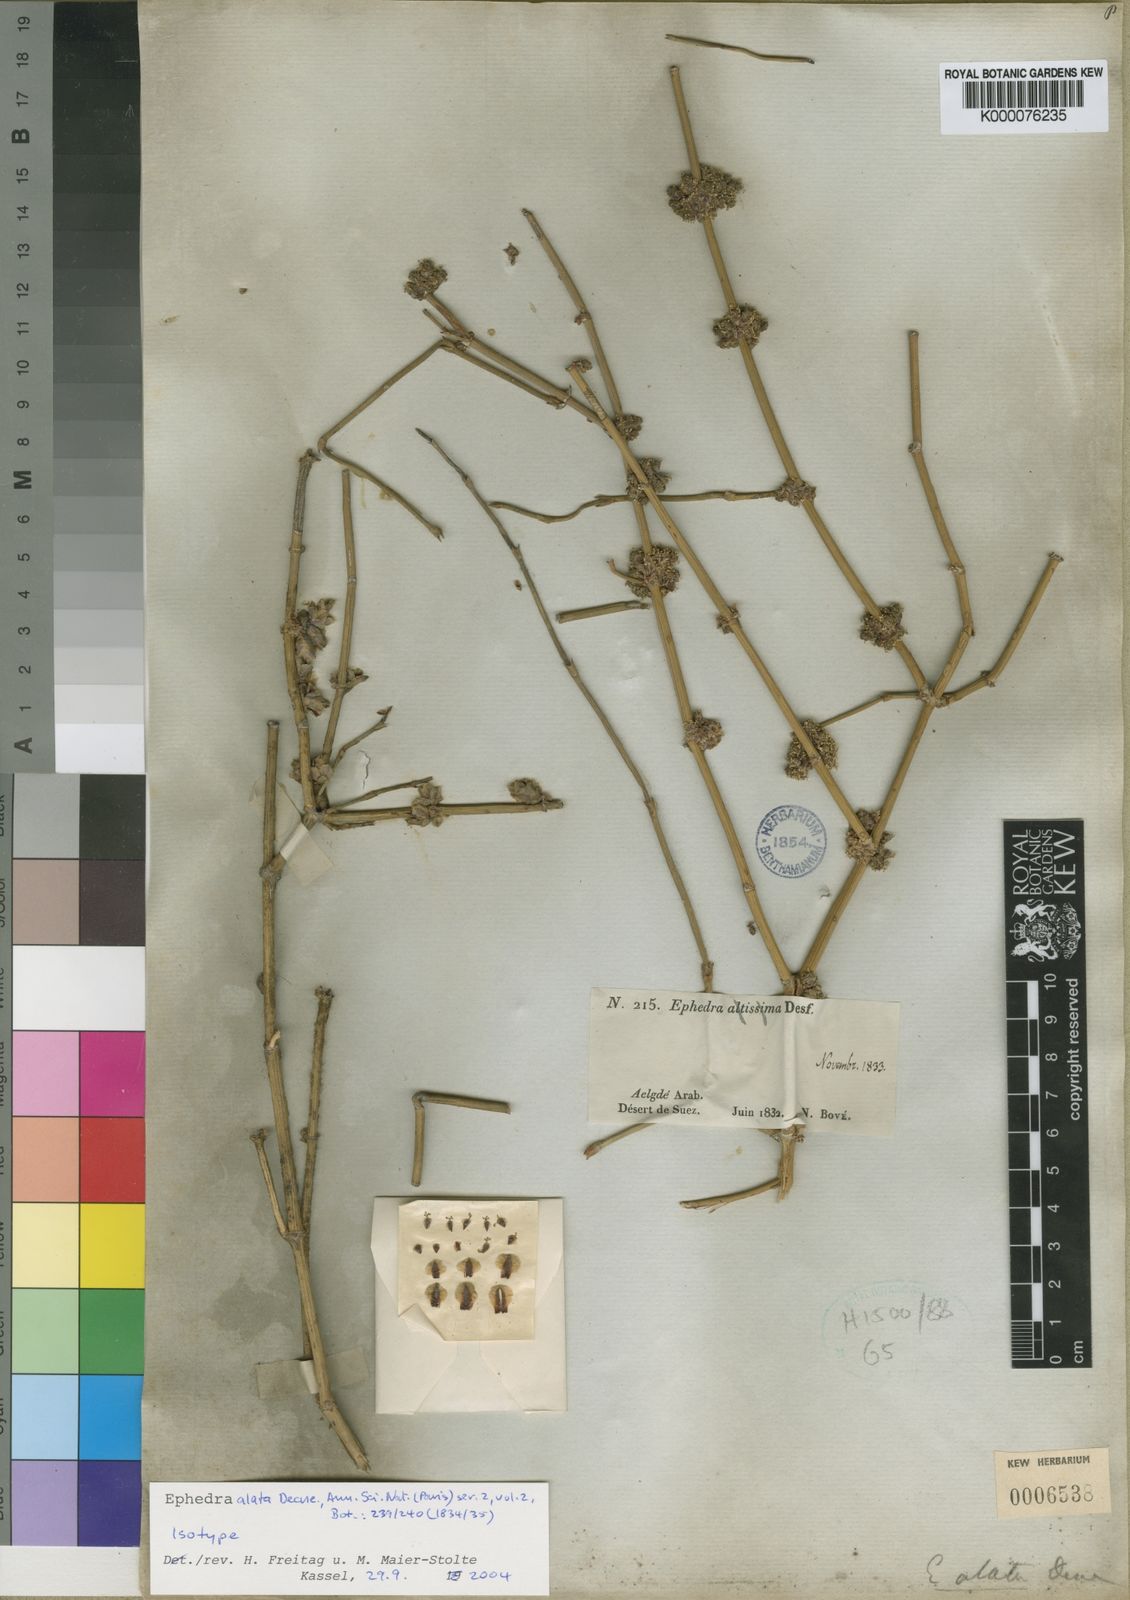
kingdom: Plantae
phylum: Tracheophyta
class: Gnetopsida
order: Ephedrales
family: Ephedraceae
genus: Ephedra
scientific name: Ephedra alata
